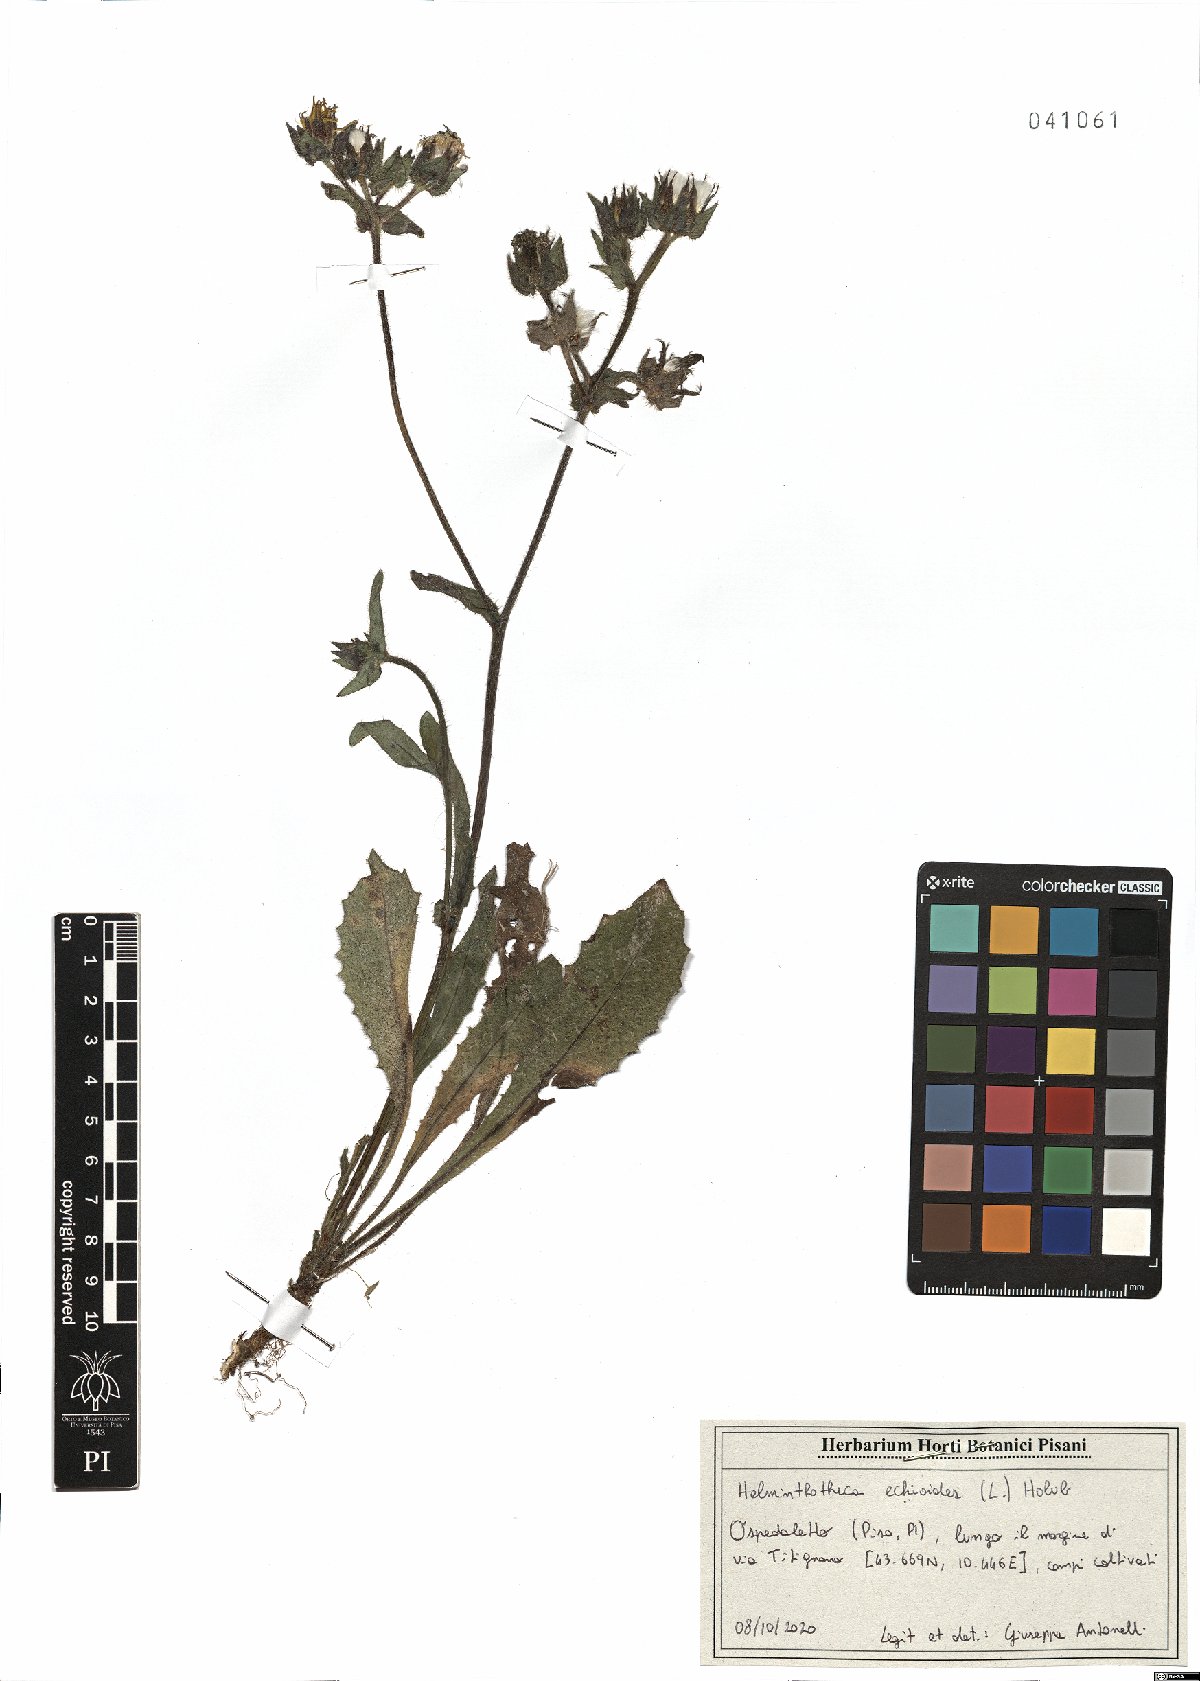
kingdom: Plantae
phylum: Tracheophyta
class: Magnoliopsida
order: Asterales
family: Asteraceae
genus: Helminthotheca
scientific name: Helminthotheca echioides
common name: Ox-tongue
